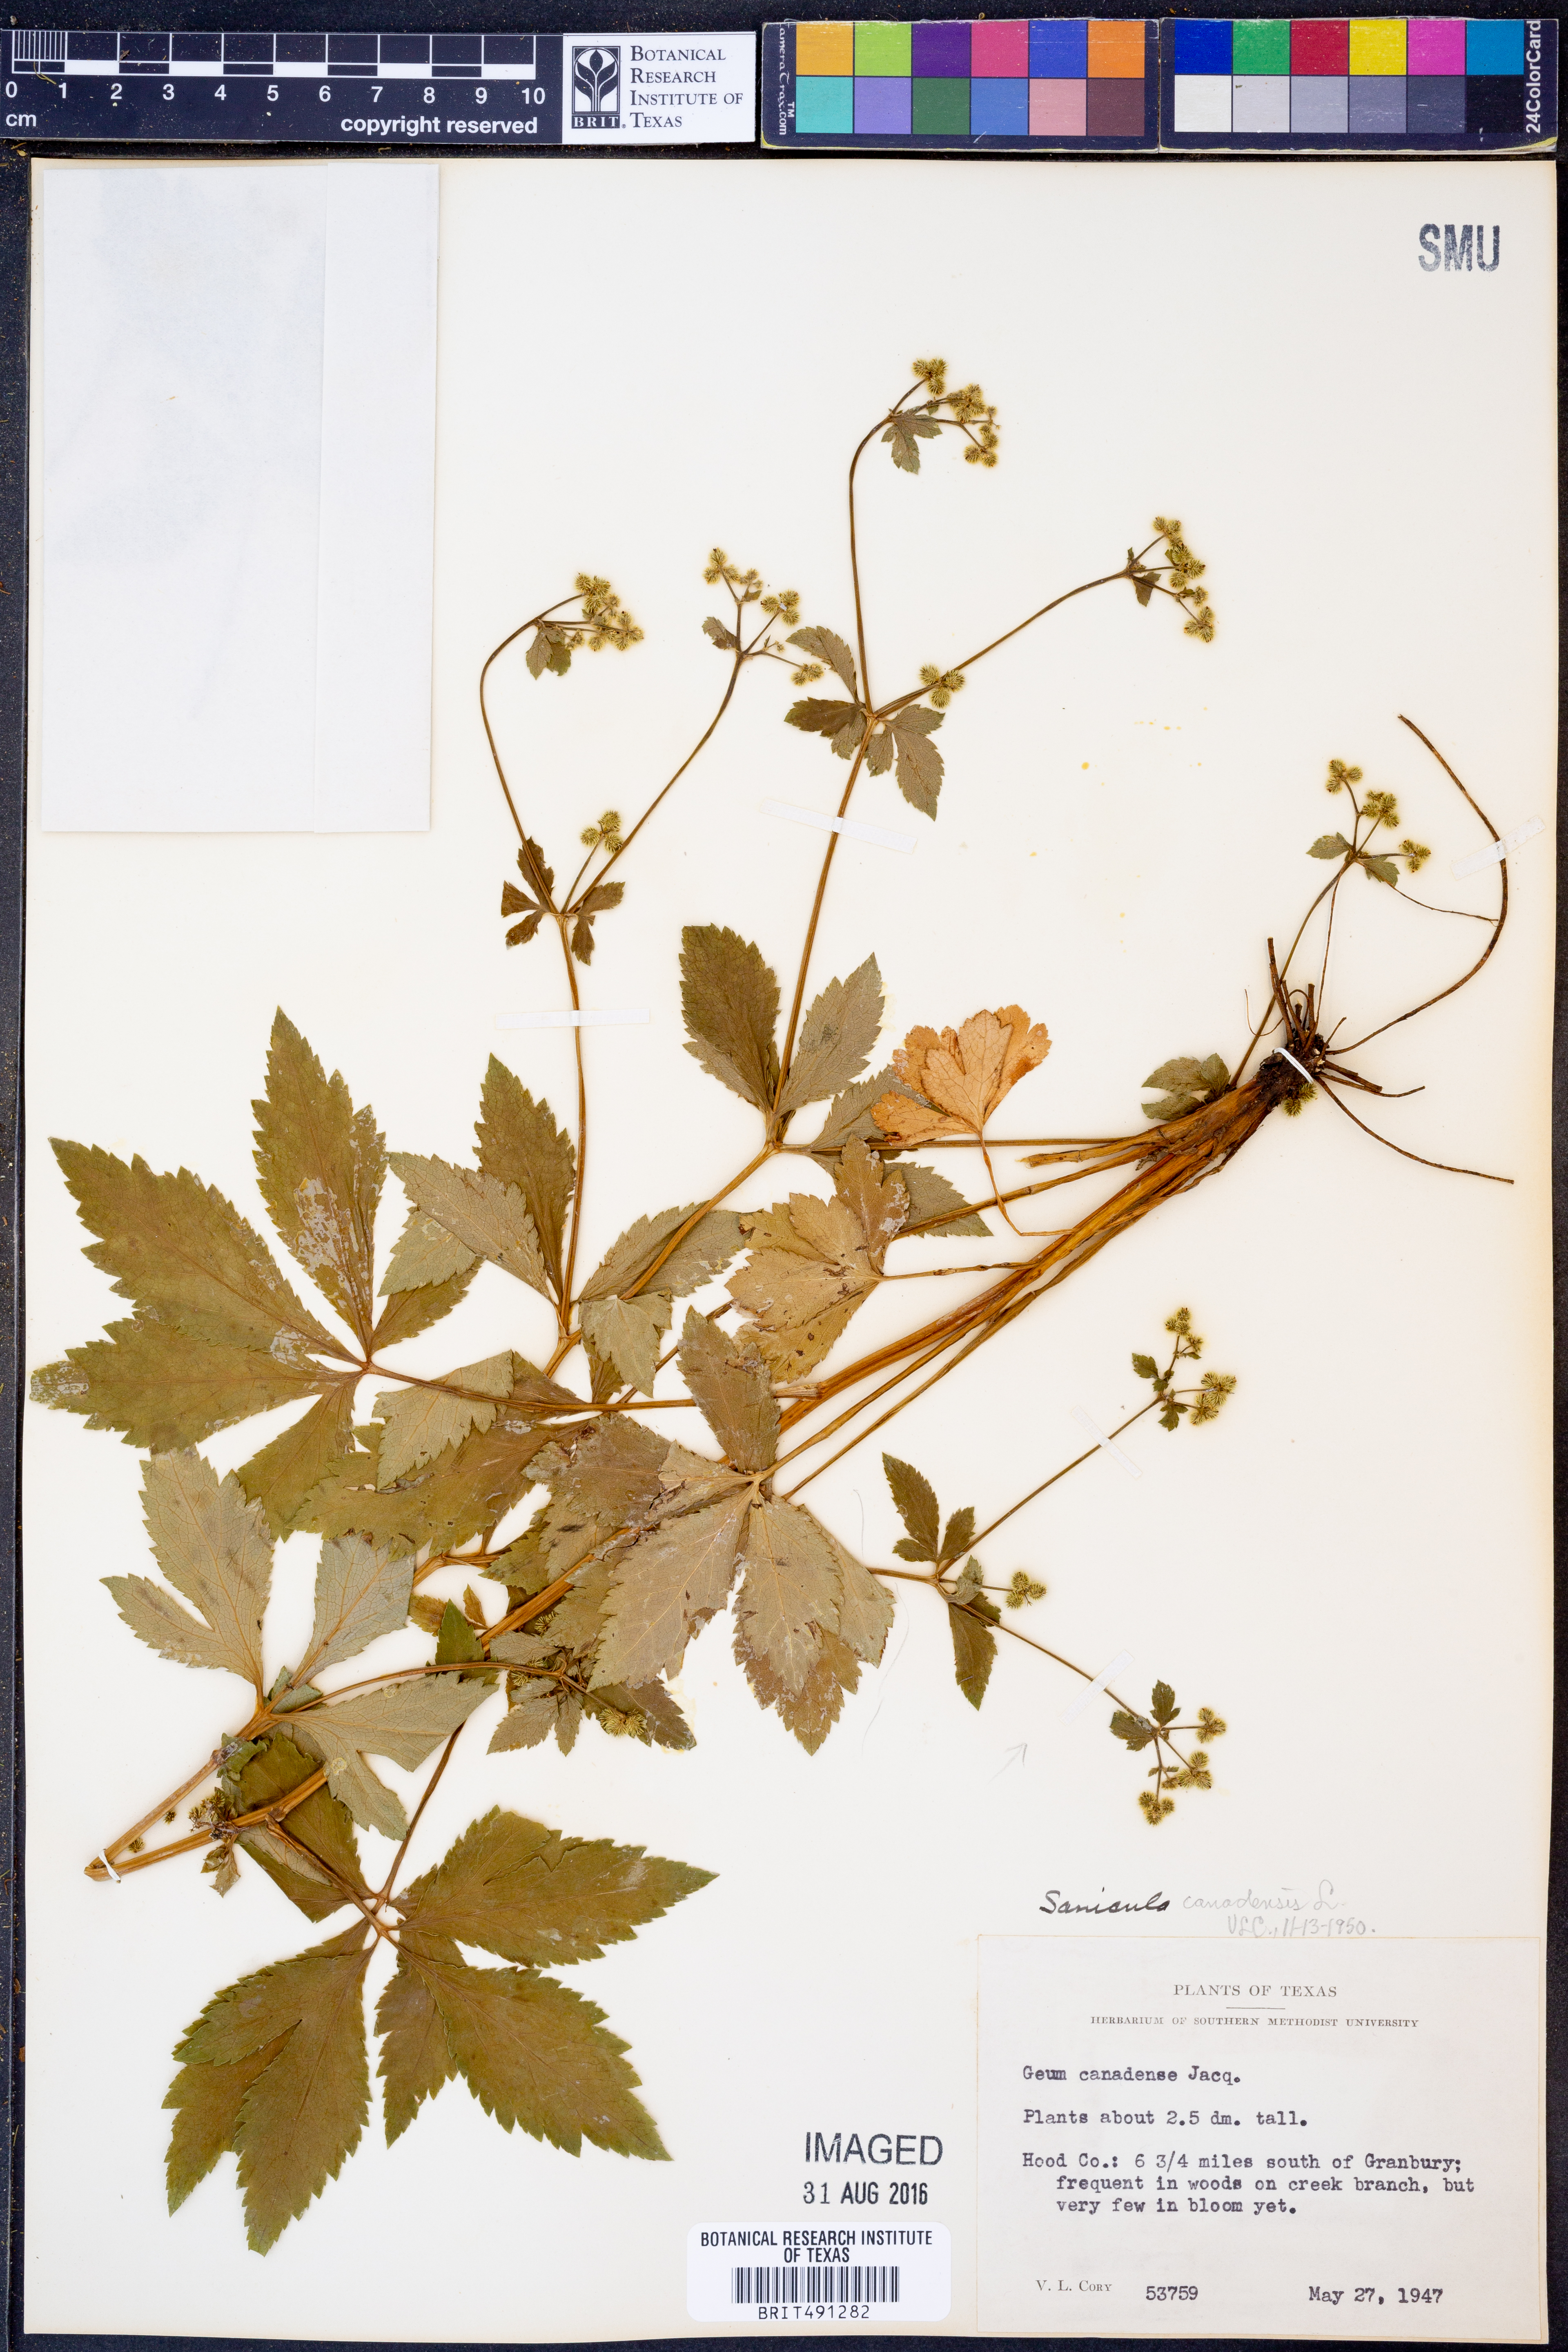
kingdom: Plantae
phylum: Tracheophyta
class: Magnoliopsida
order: Apiales
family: Apiaceae
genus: Sanicula
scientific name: Sanicula canadensis
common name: Canada sanicle
